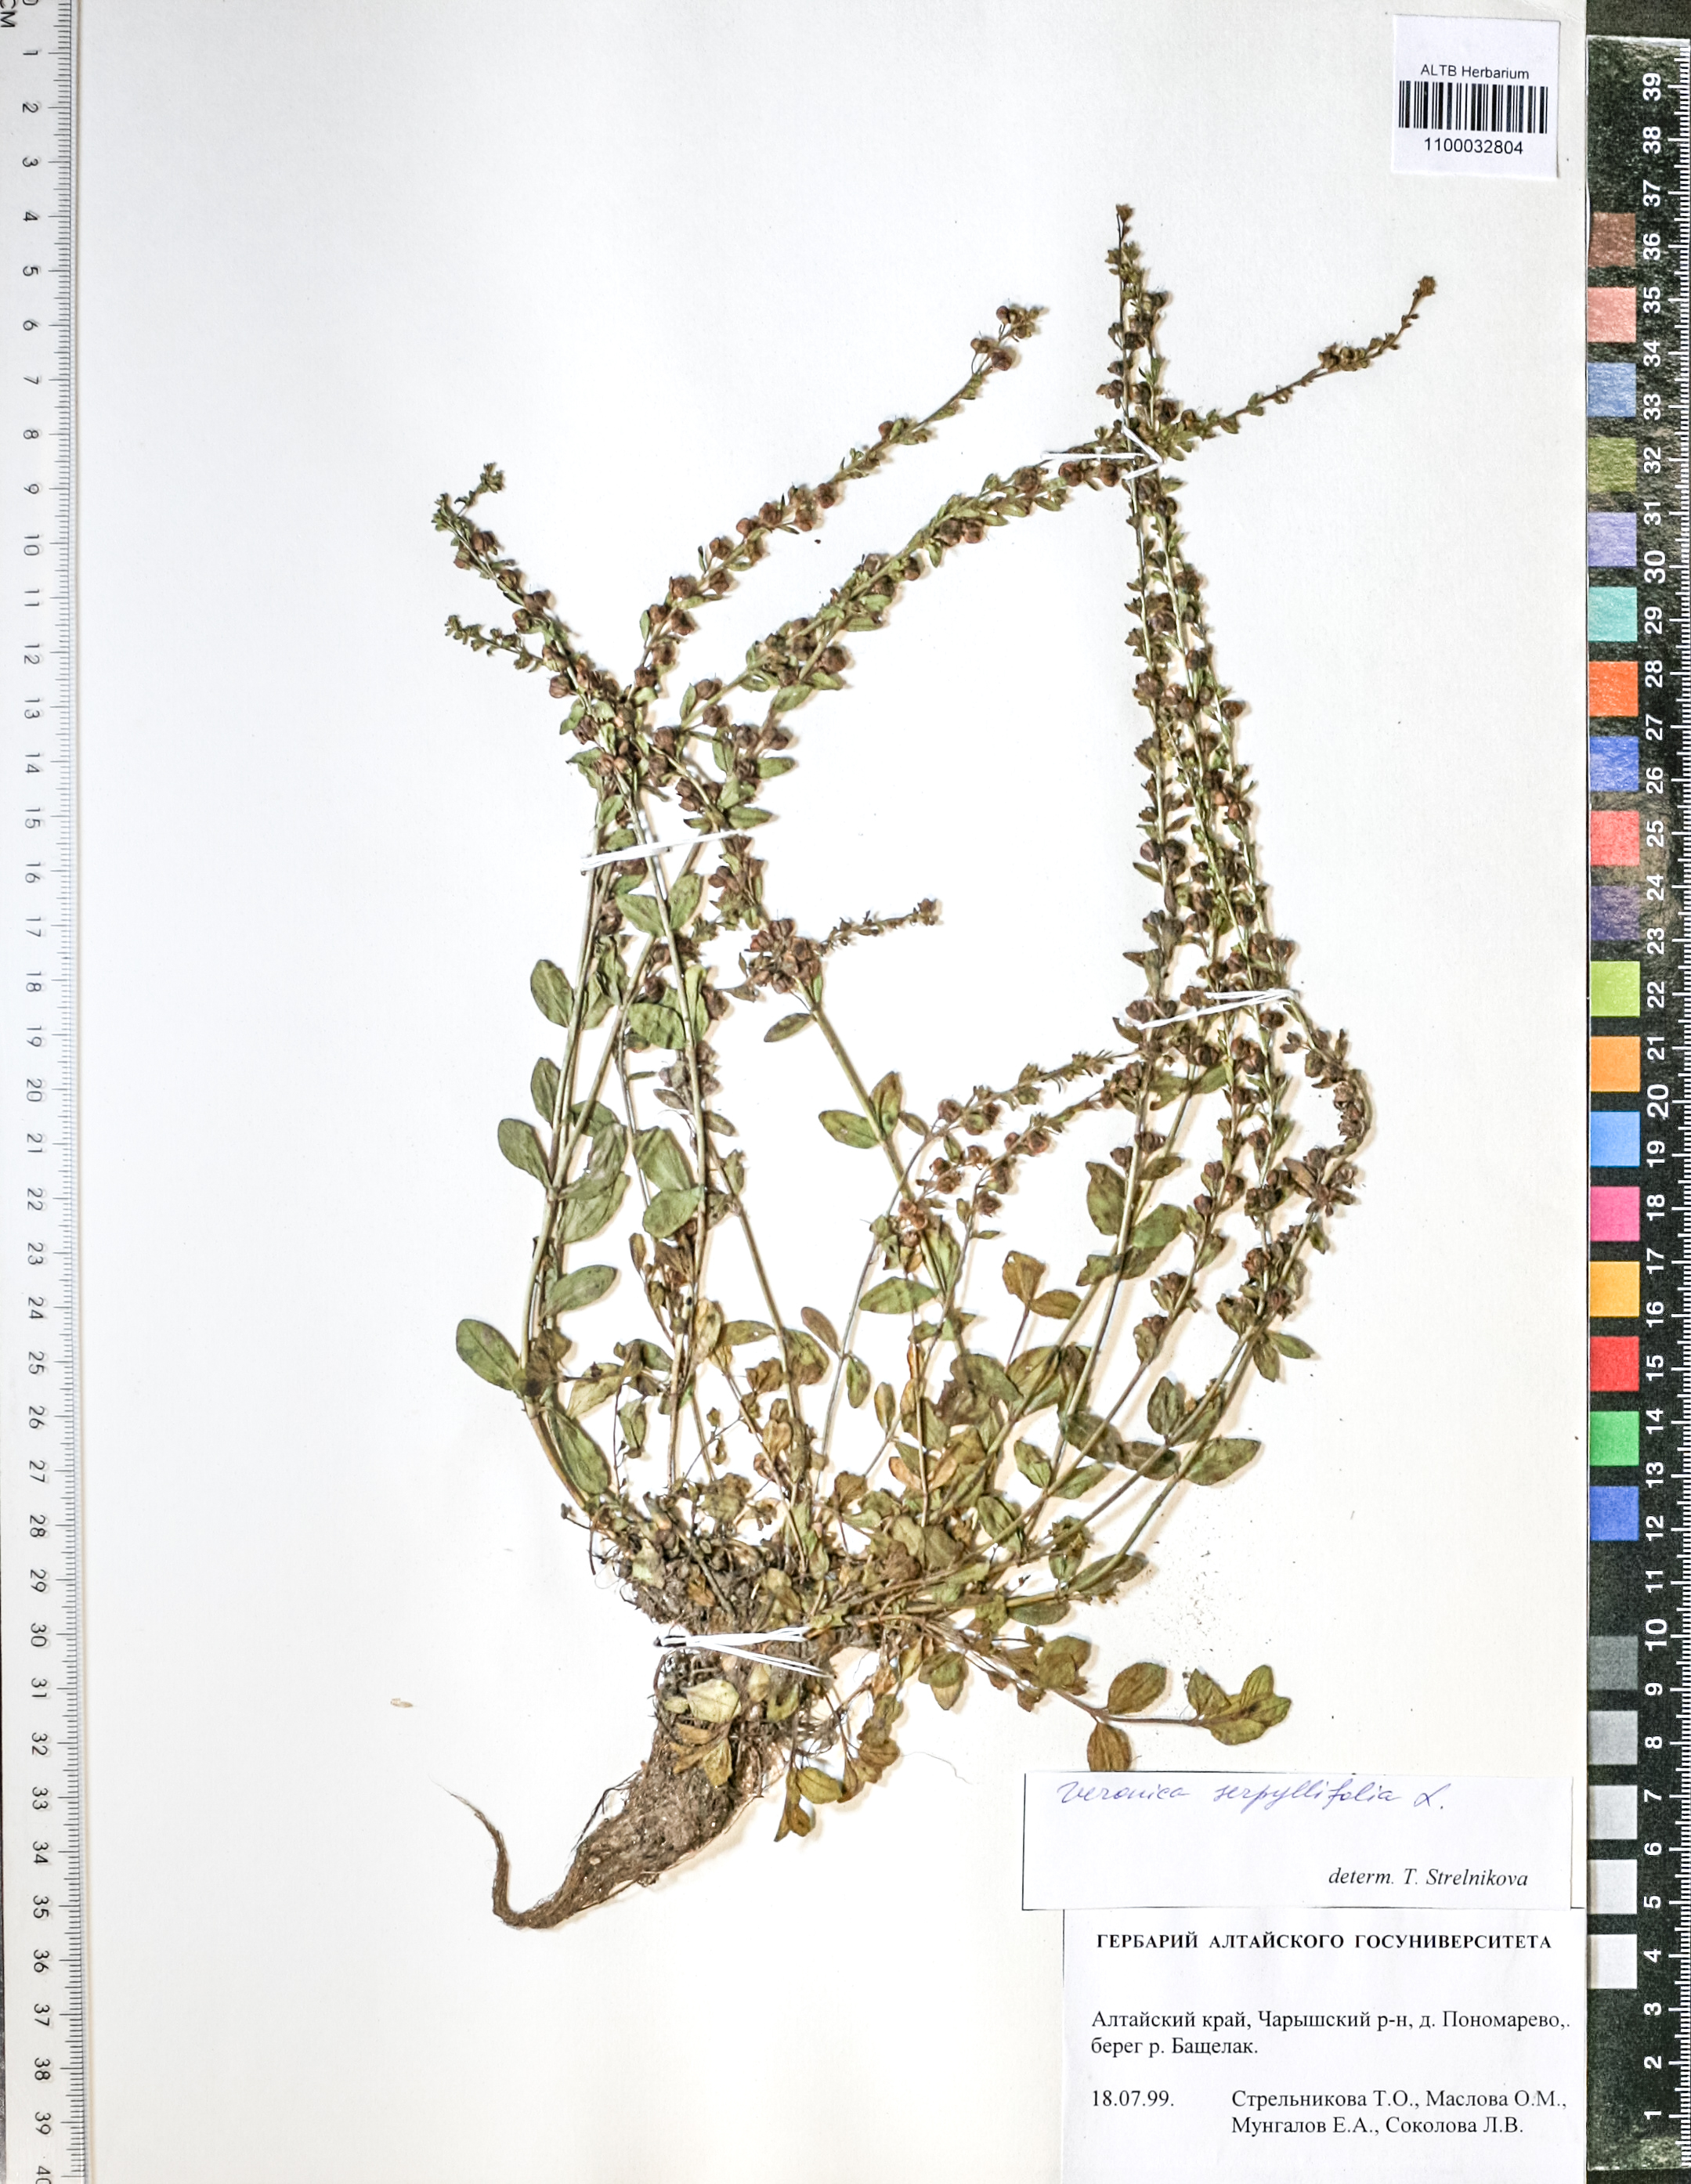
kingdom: Plantae
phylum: Tracheophyta
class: Magnoliopsida
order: Lamiales
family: Plantaginaceae
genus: Veronica
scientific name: Veronica serpyllifolia
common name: Thyme-leaved speedwell
